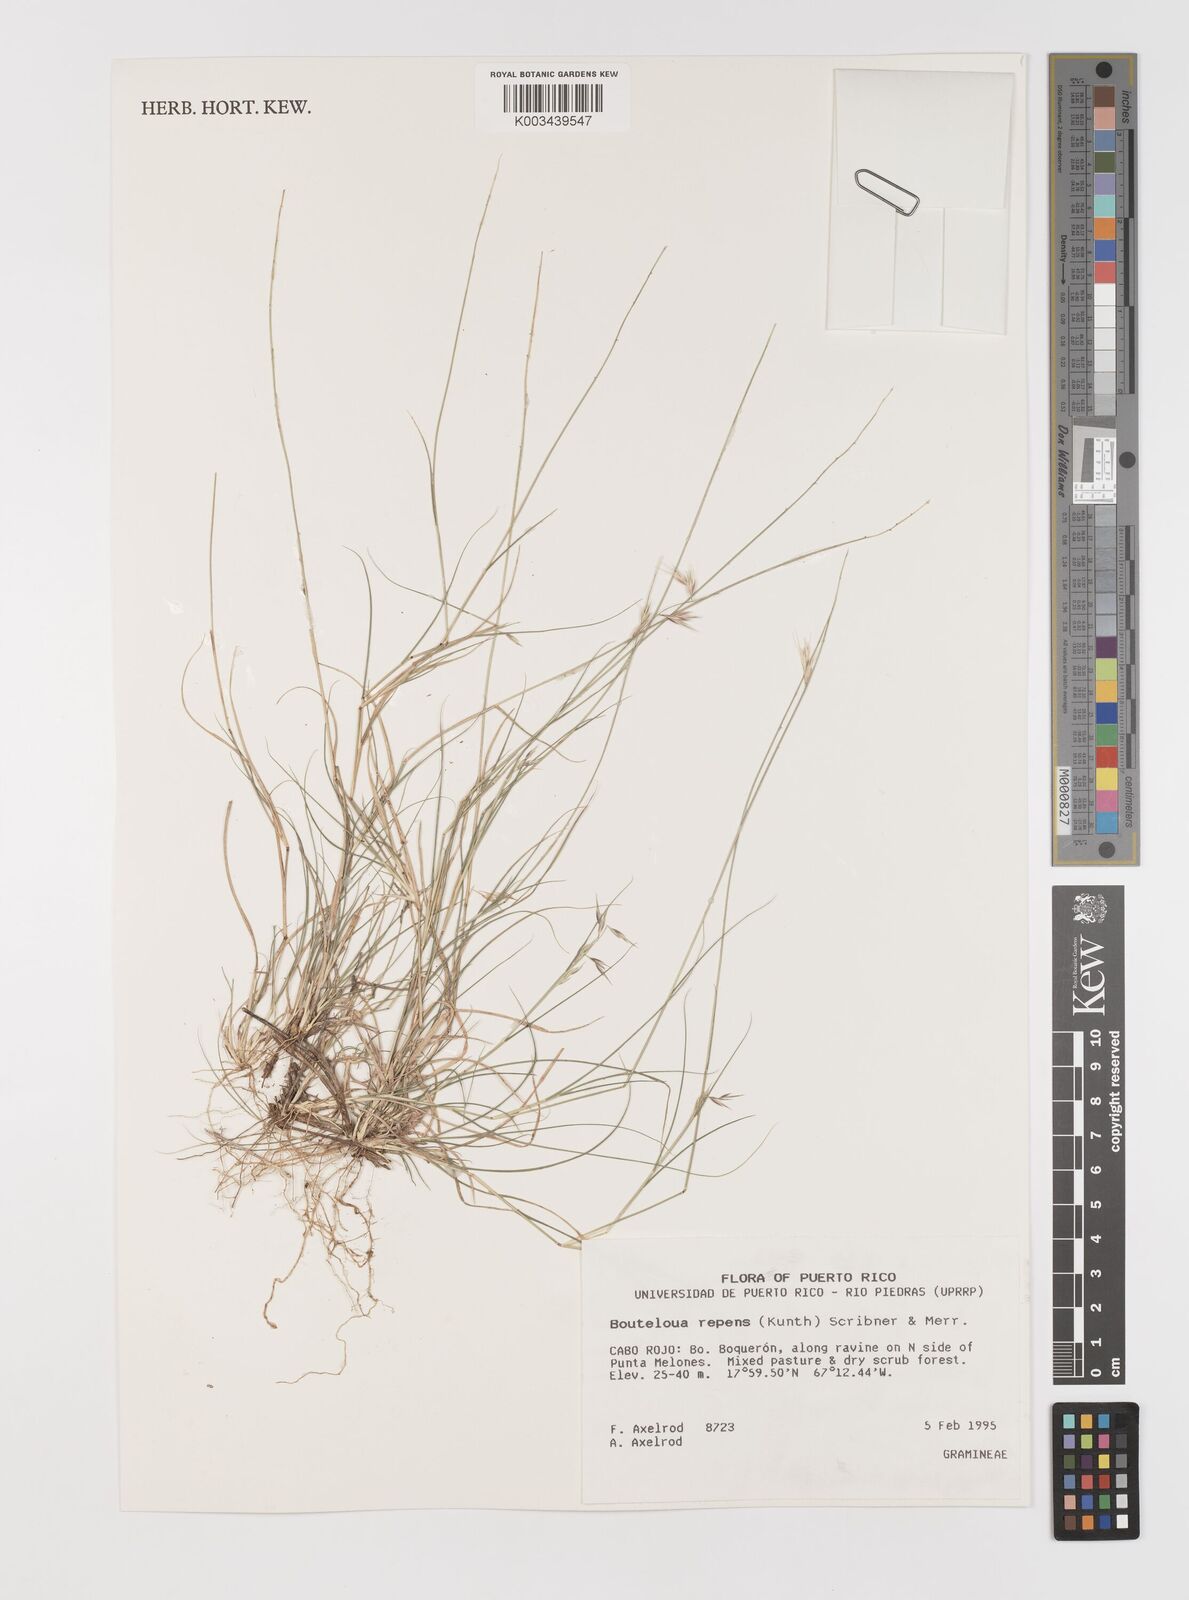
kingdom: Plantae
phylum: Tracheophyta
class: Liliopsida
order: Poales
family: Poaceae
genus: Bouteloua
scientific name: Bouteloua repens
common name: Slender grama
